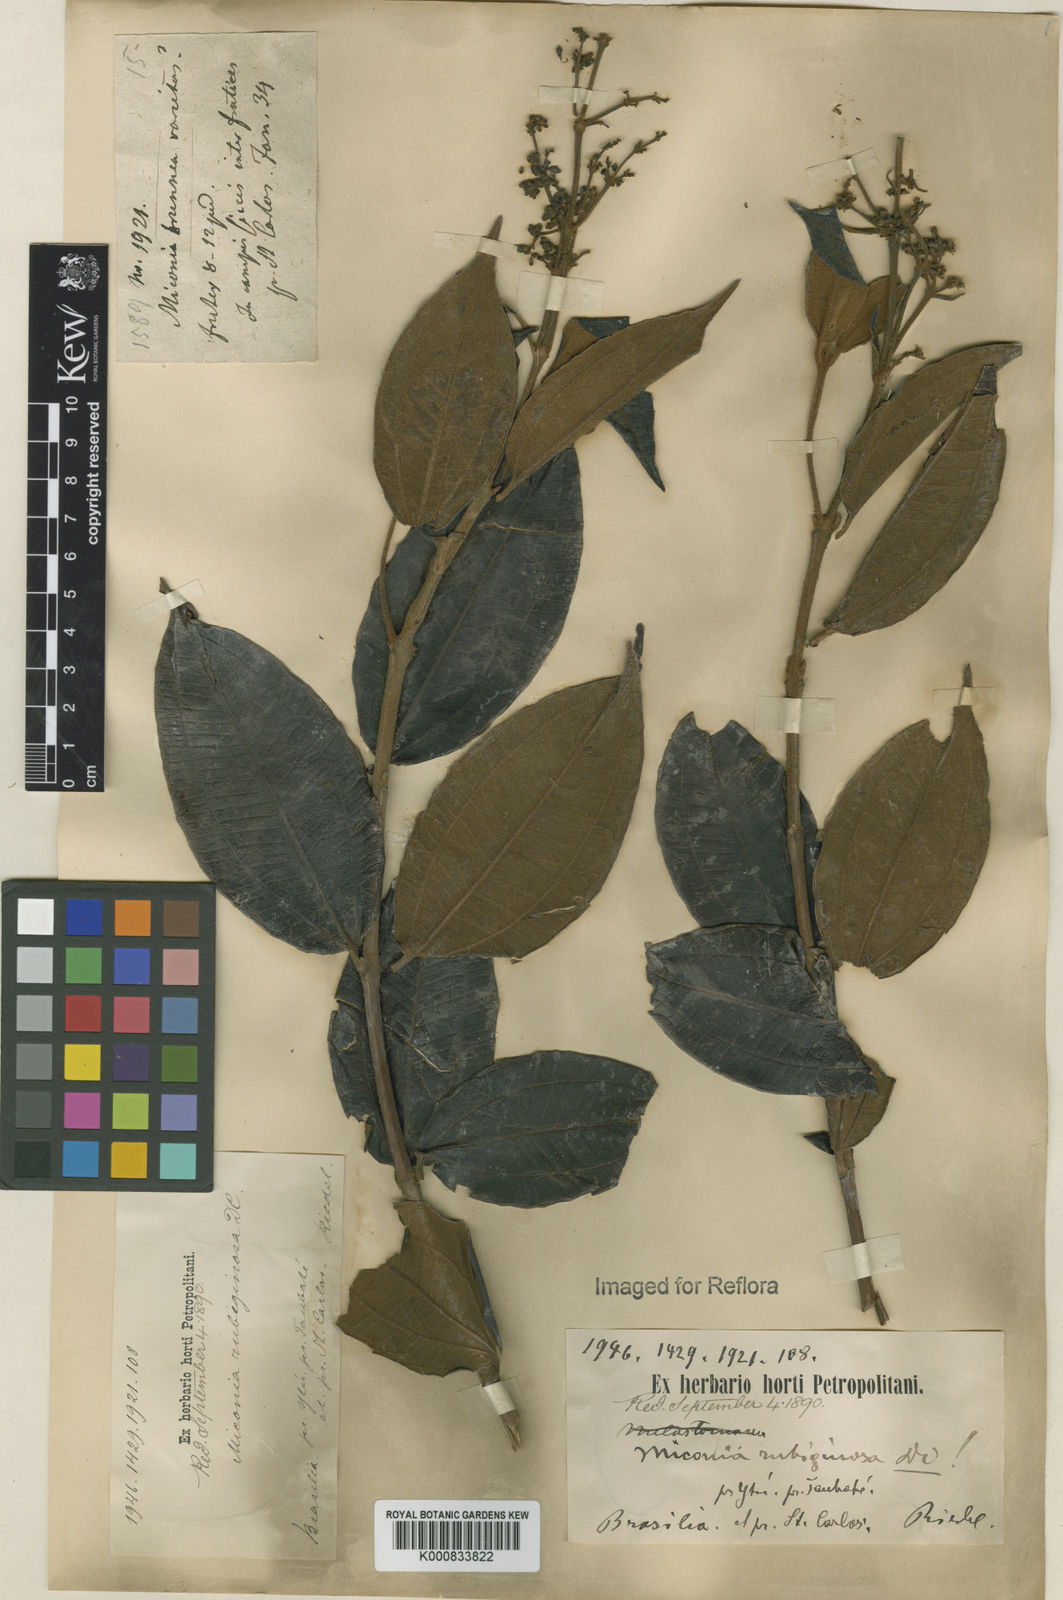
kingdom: Plantae
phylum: Tracheophyta
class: Magnoliopsida
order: Myrtales
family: Melastomataceae
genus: Miconia
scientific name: Miconia rubiginosa
